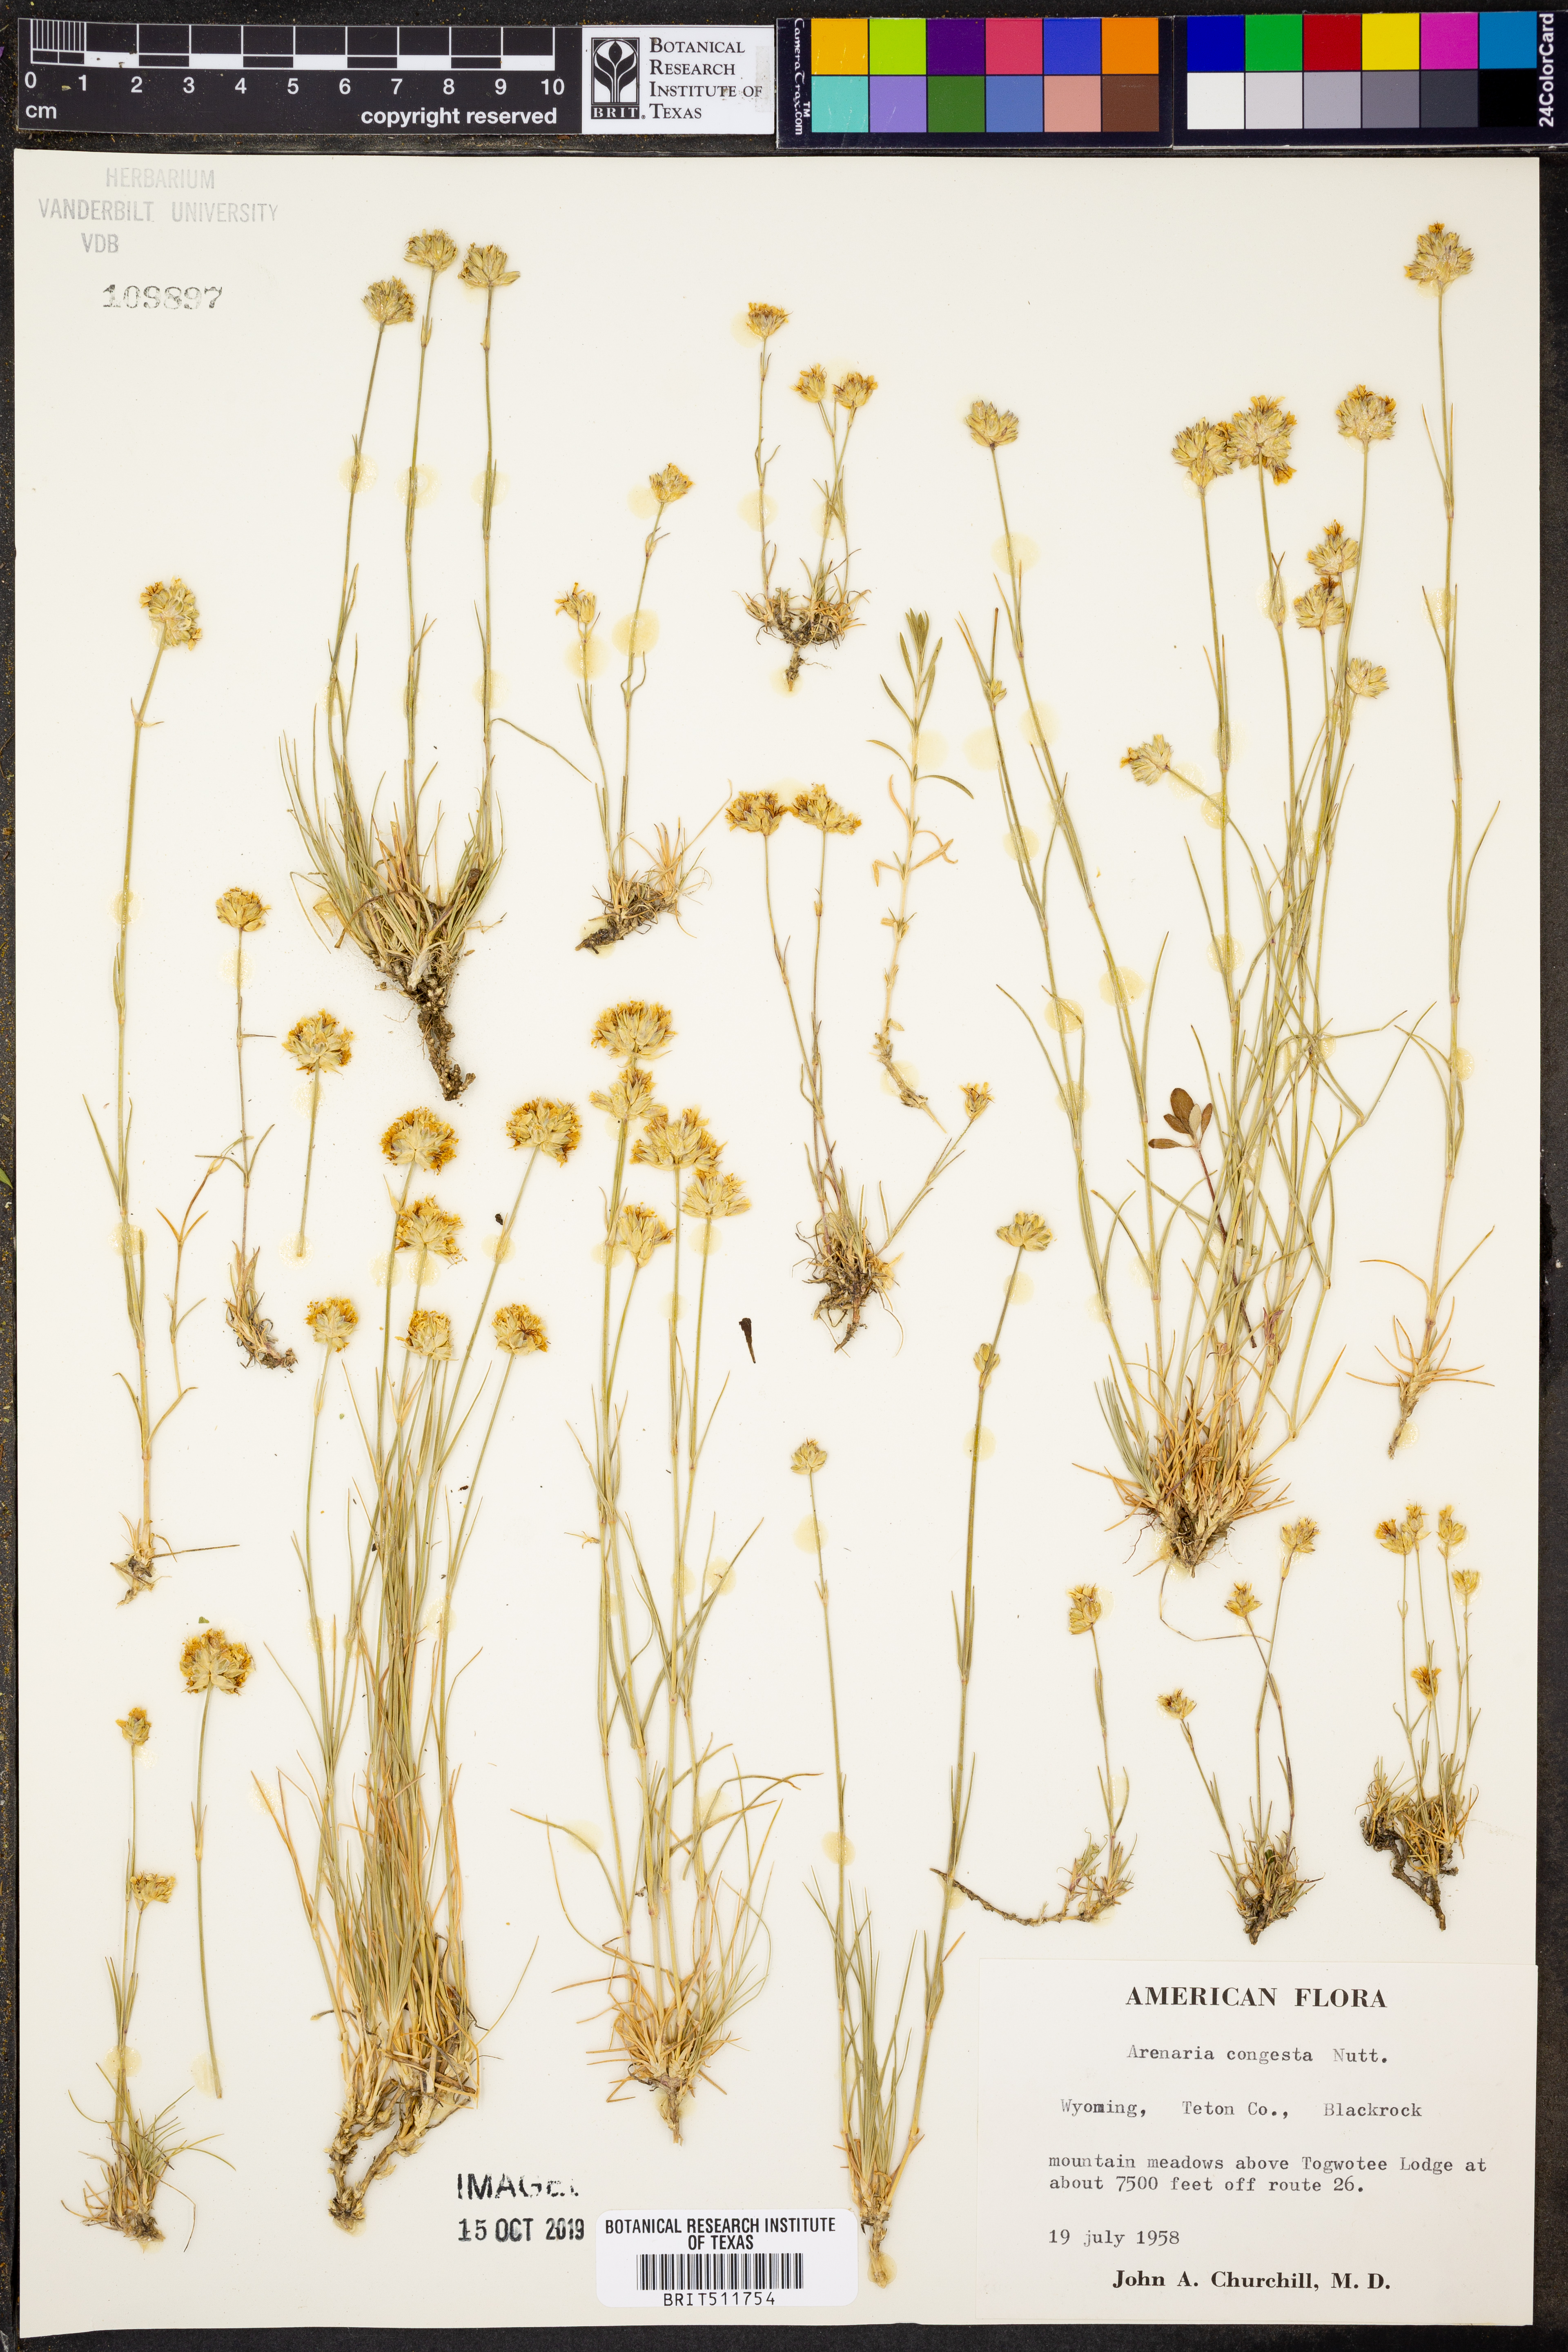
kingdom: Plantae
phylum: Tracheophyta
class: Magnoliopsida
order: Caryophyllales
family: Caryophyllaceae
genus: Eremogone
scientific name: Eremogone congesta
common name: Ballhead sandwort
